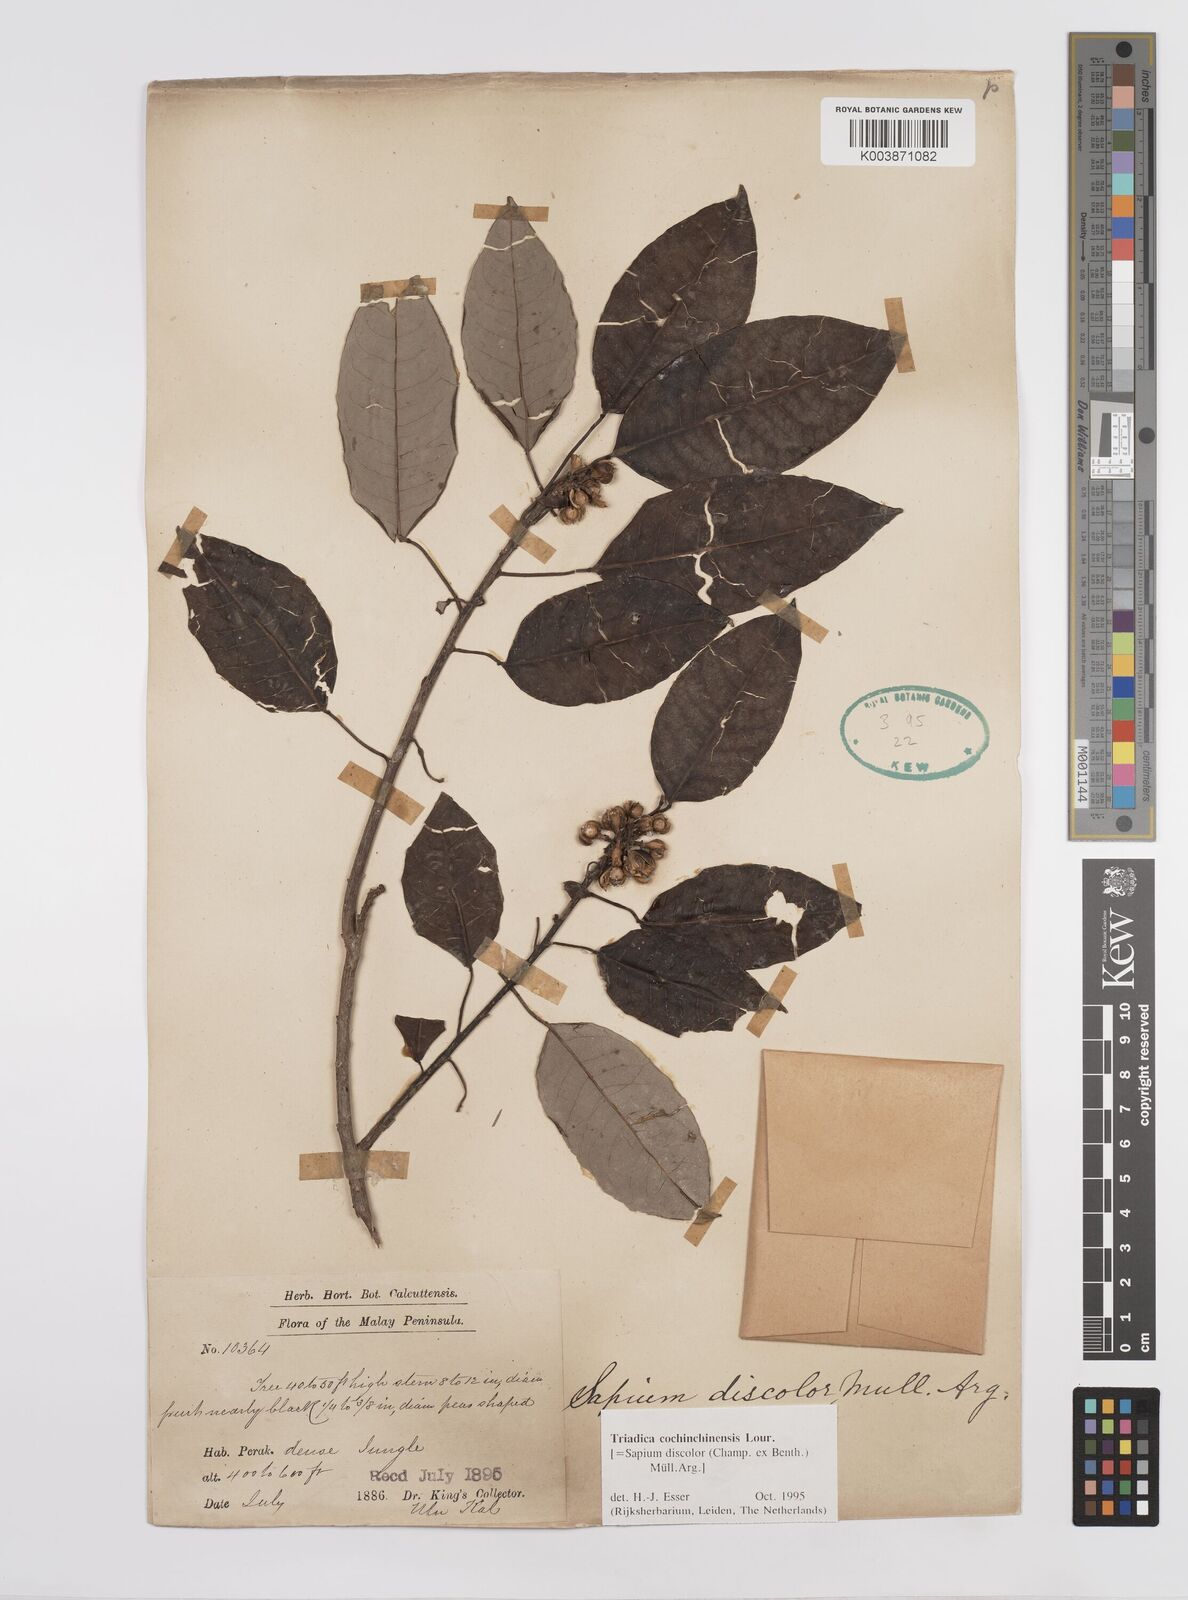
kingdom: Plantae
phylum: Tracheophyta
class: Magnoliopsida
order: Malpighiales
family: Euphorbiaceae
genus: Triadica
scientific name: Triadica cochinchinensis
